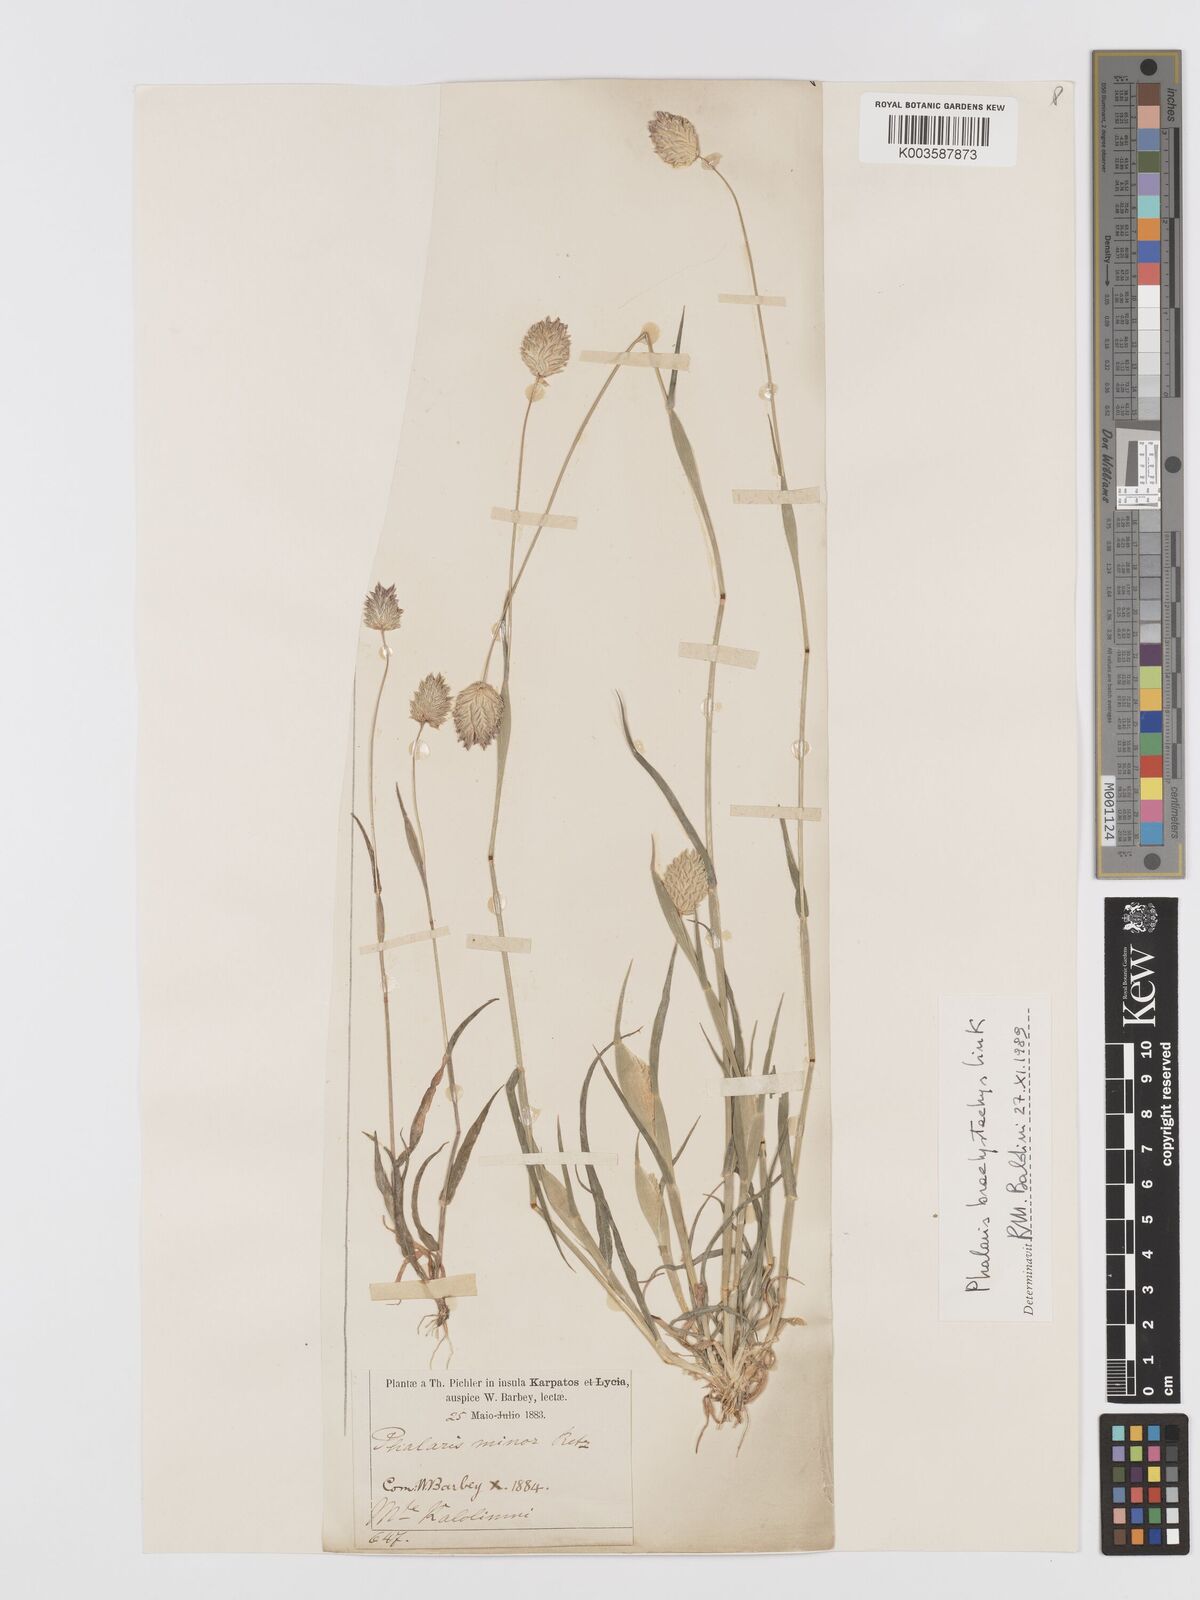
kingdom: Plantae
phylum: Tracheophyta
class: Liliopsida
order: Poales
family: Poaceae
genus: Phalaris
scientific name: Phalaris minor
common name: Littleseed canarygrass
